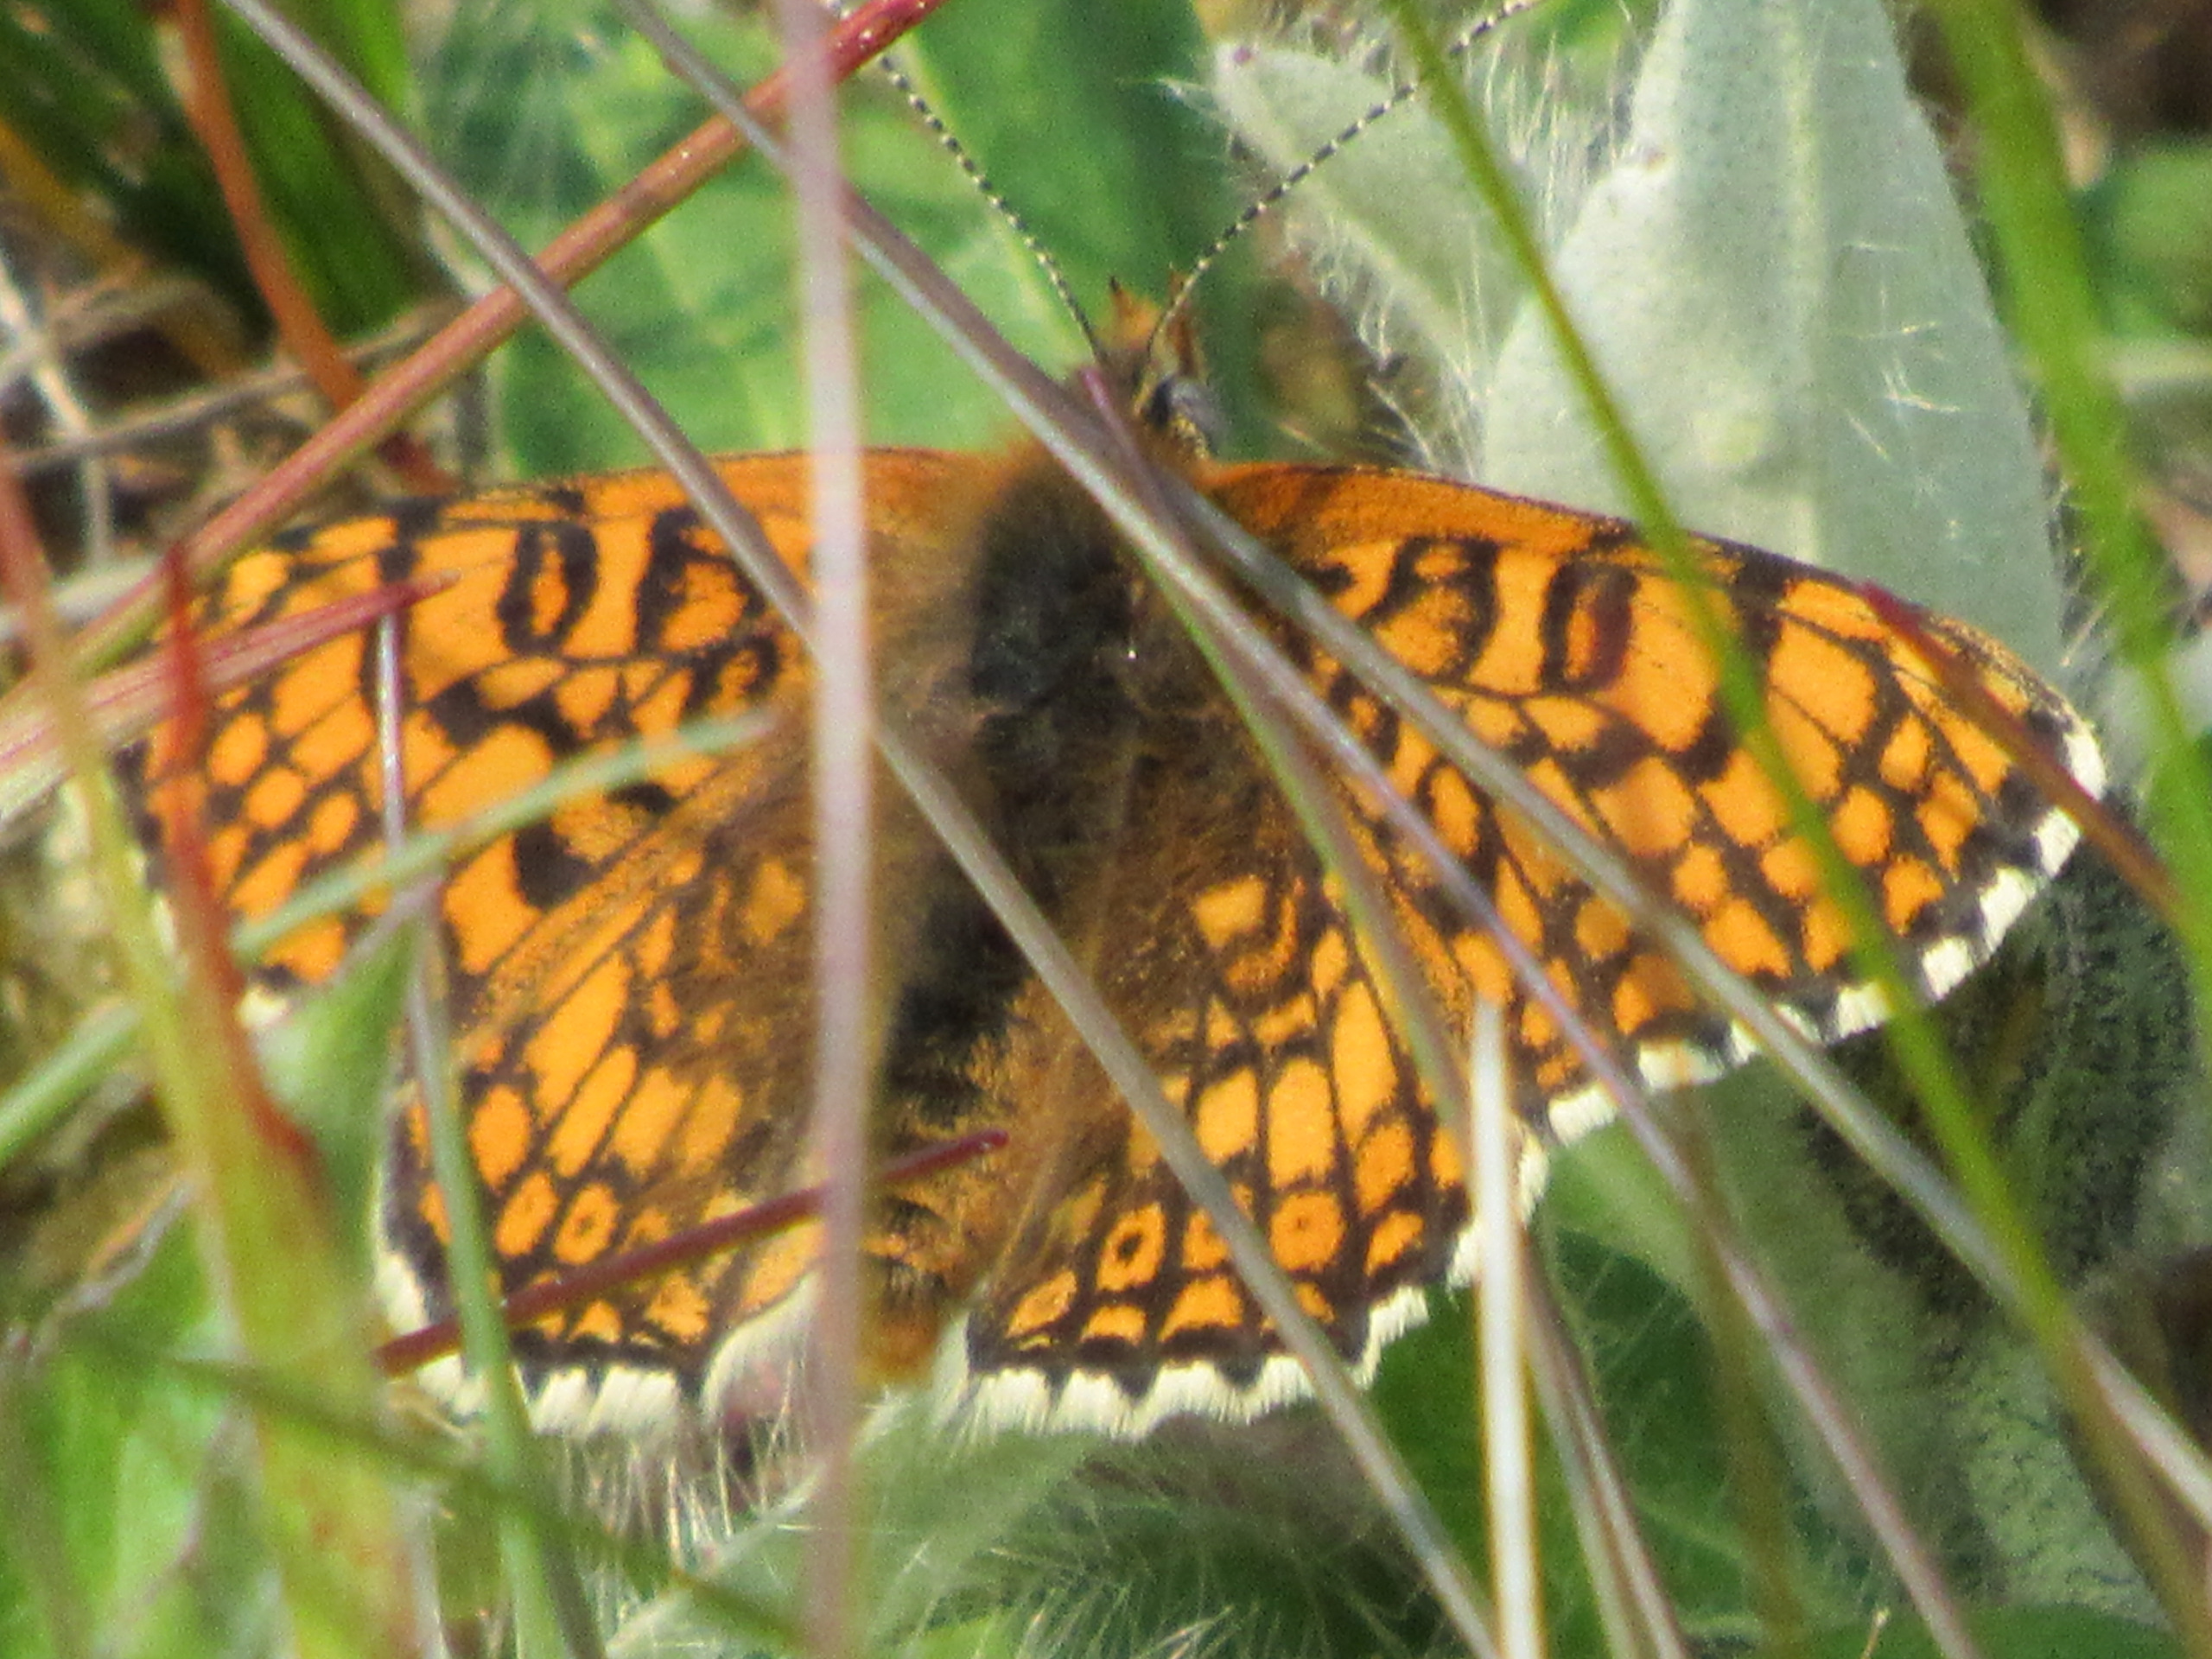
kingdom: Animalia
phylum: Arthropoda
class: Insecta
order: Lepidoptera
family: Nymphalidae
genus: Melitaea
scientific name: Melitaea cinxia
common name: Okkergul pletvinge
